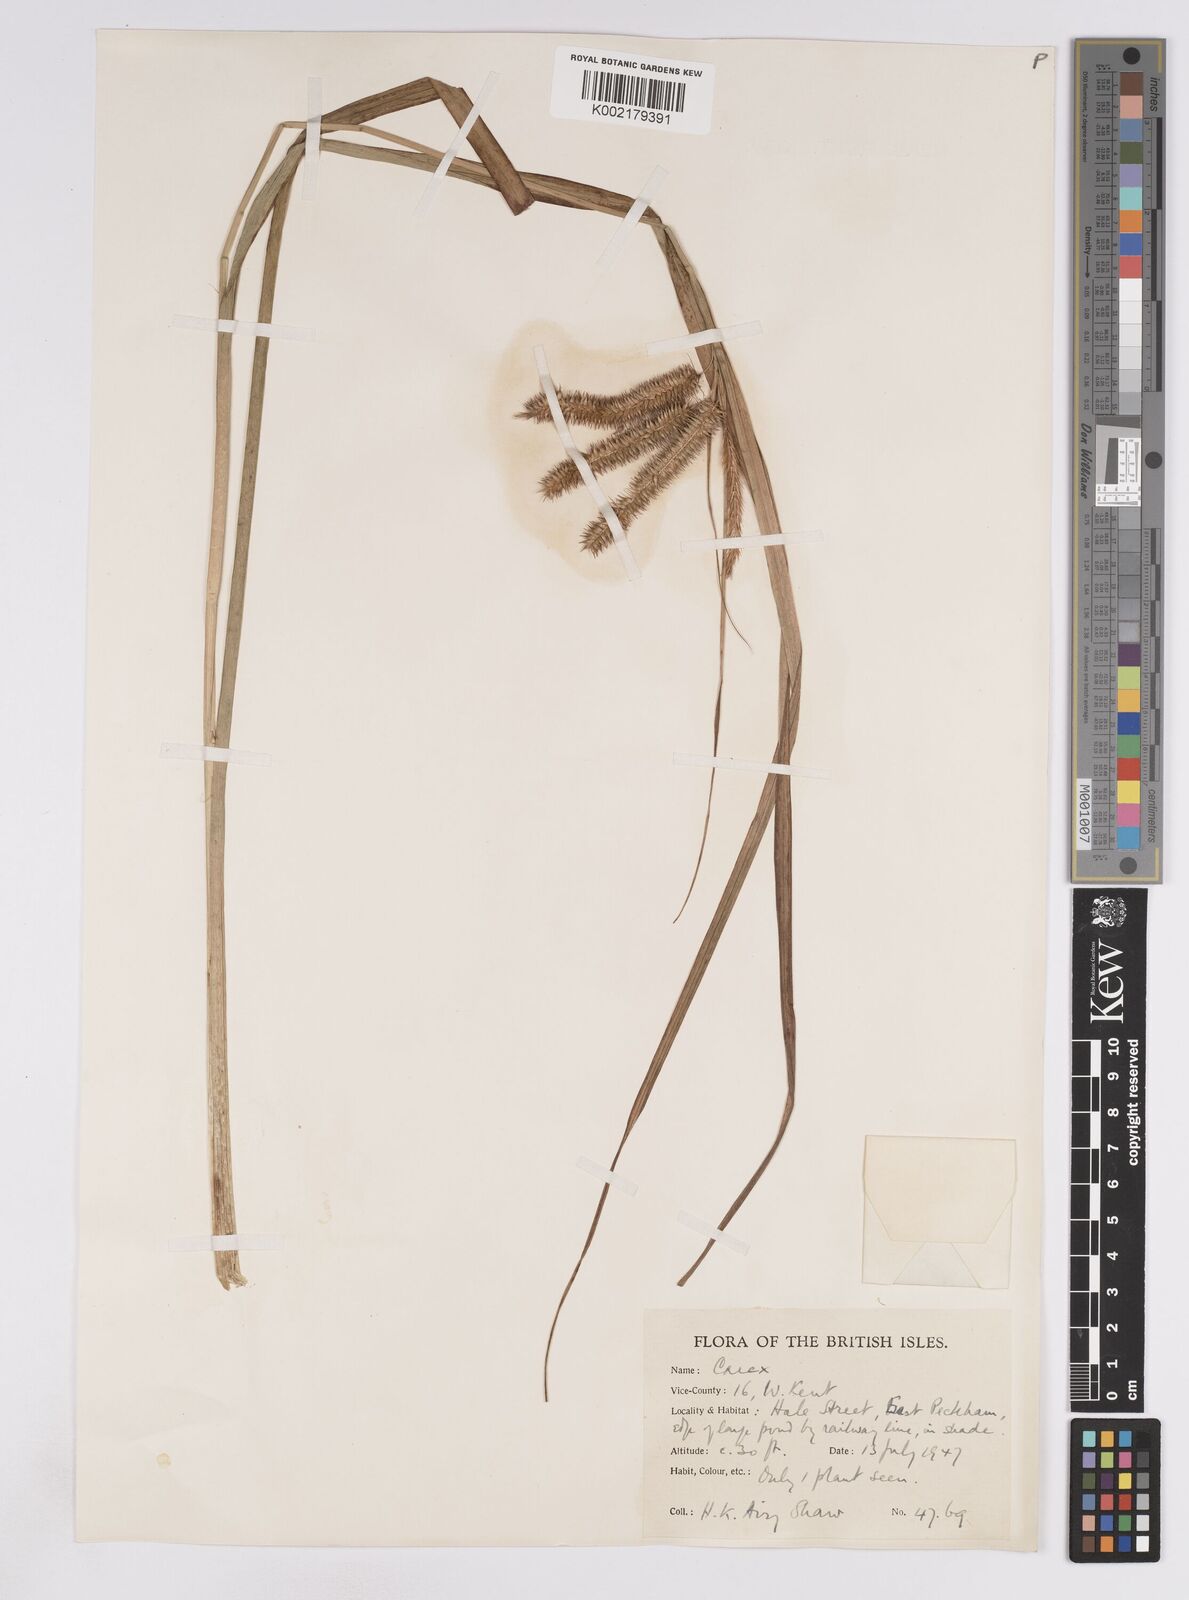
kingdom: Plantae
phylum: Tracheophyta
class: Liliopsida
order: Poales
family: Cyperaceae
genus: Carex
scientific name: Carex pseudocyperus
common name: Cyperus sedge
